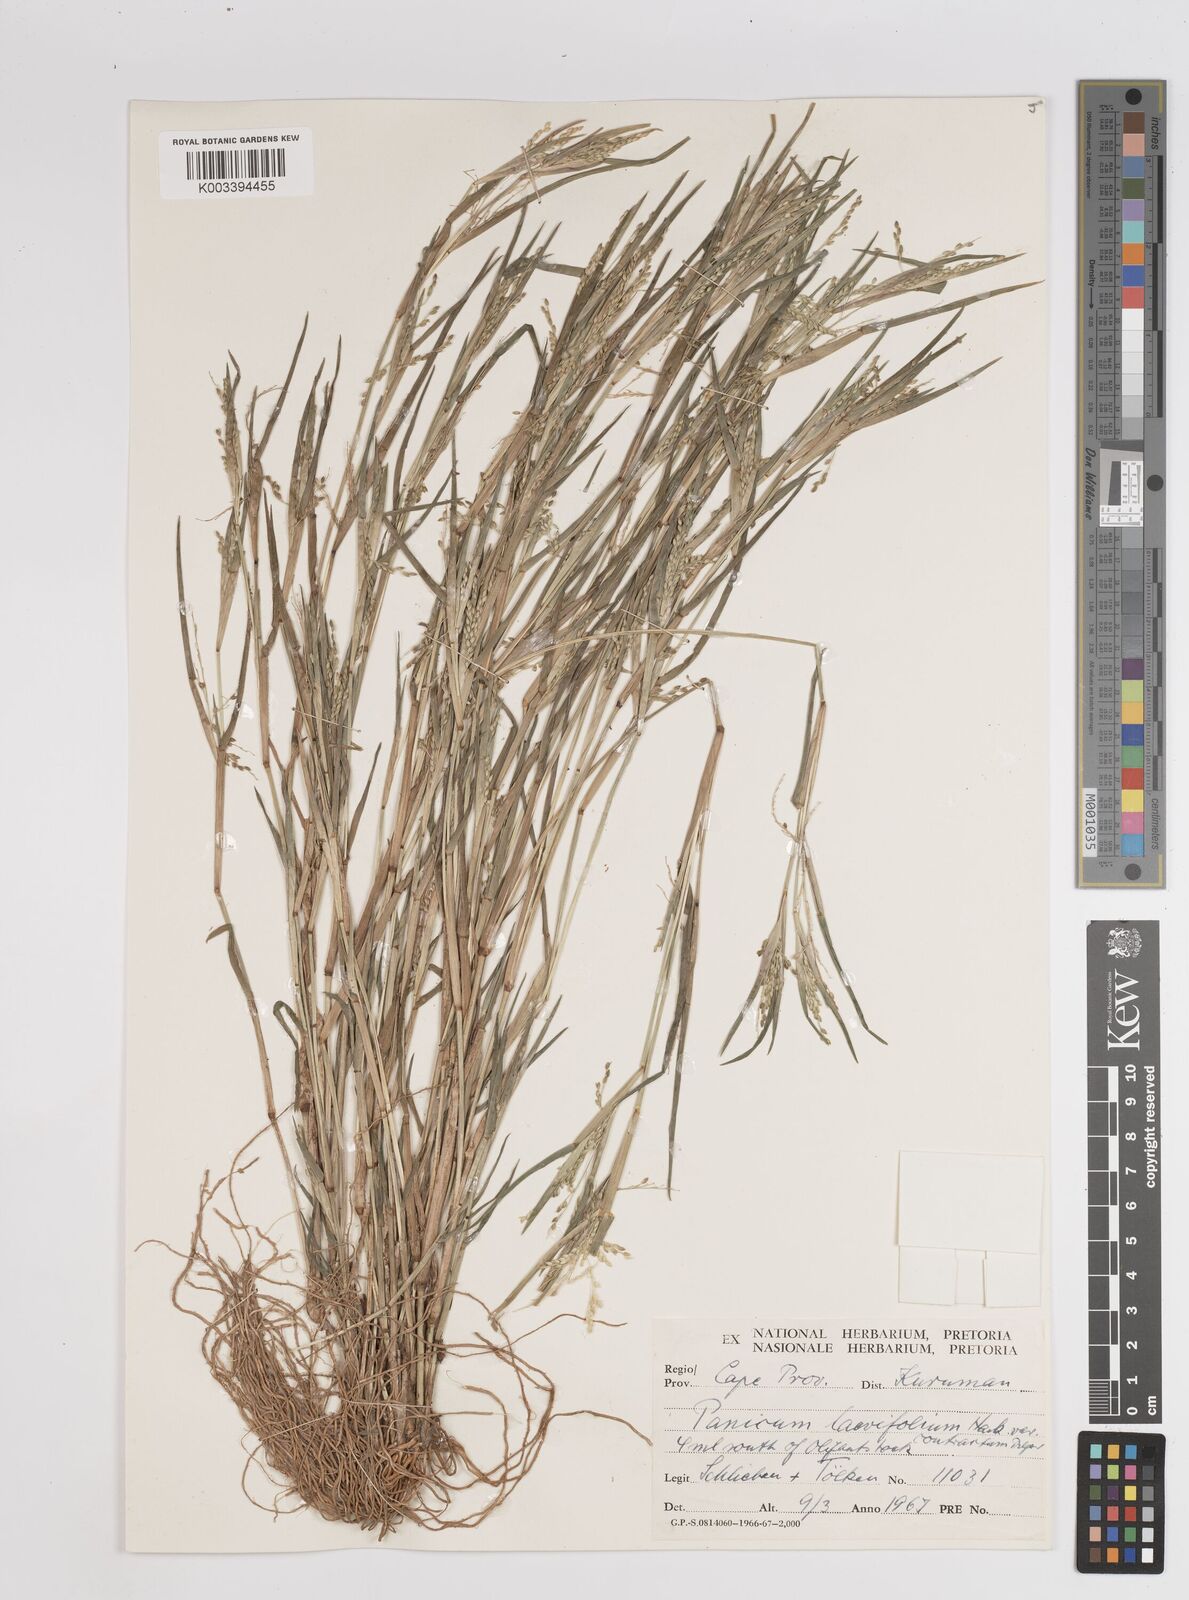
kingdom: Plantae
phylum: Tracheophyta
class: Liliopsida
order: Poales
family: Poaceae
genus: Panicum
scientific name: Panicum
